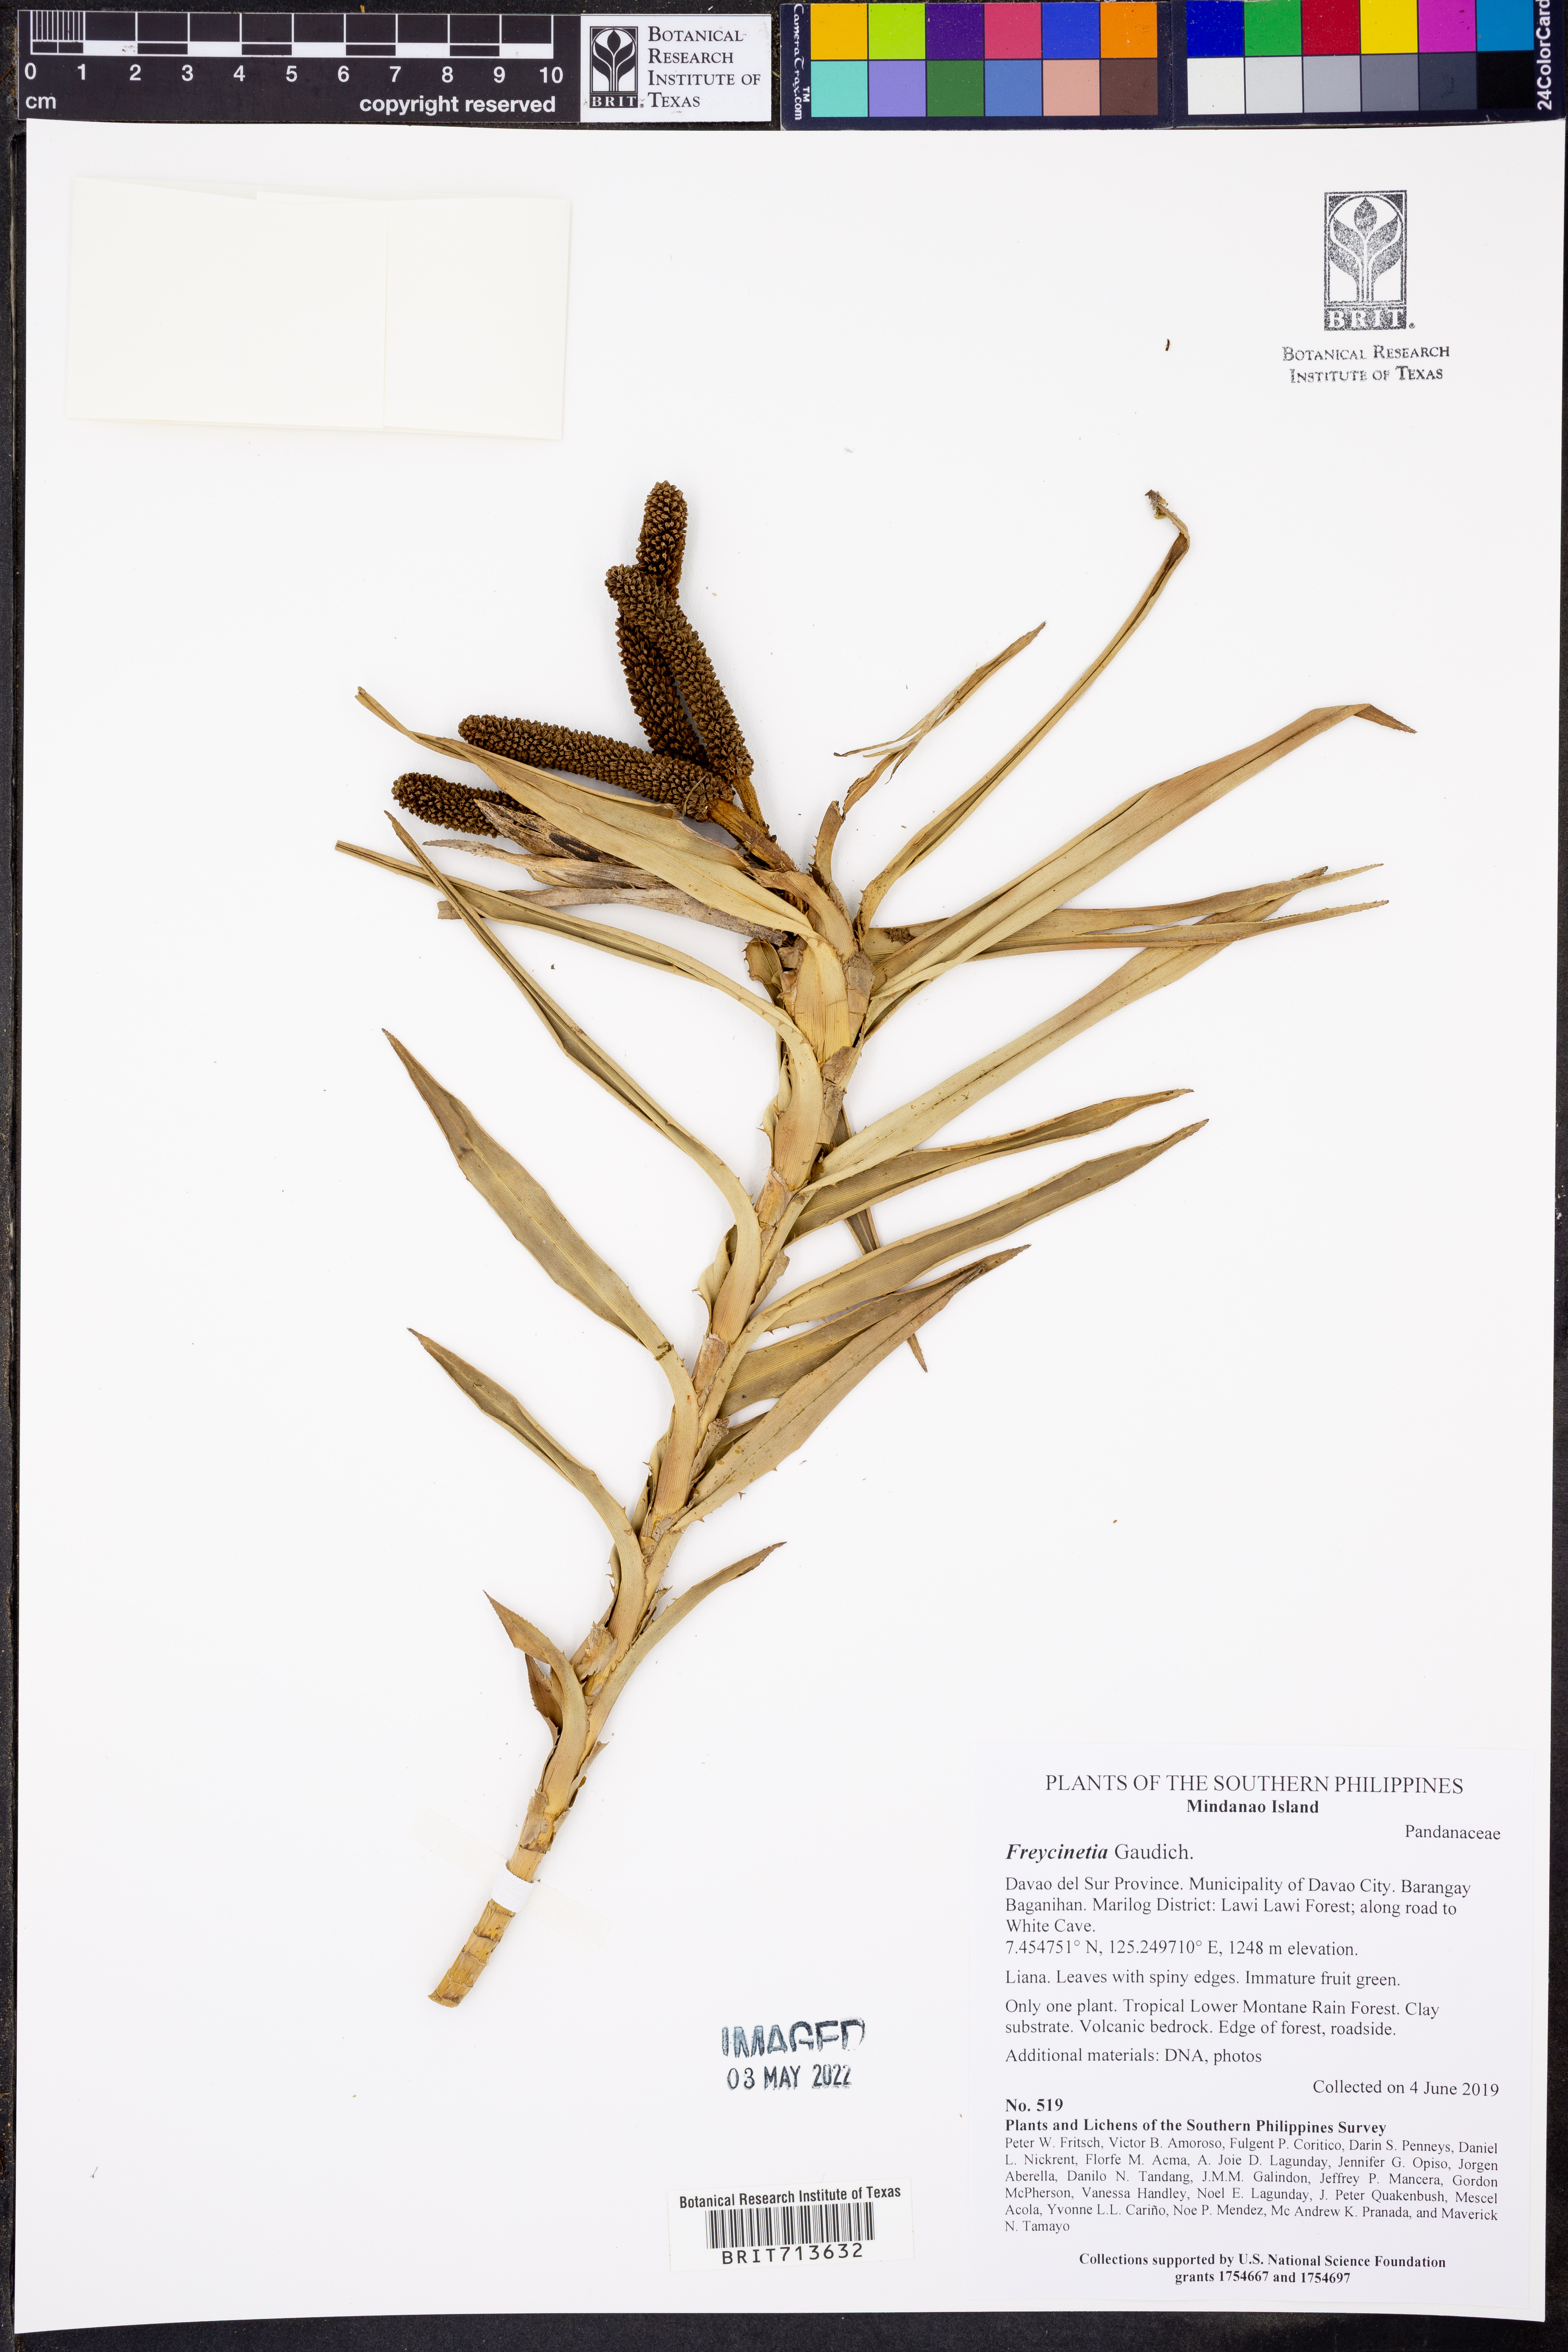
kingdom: Plantae
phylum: Tracheophyta
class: Liliopsida
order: Pandanales
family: Pandanaceae
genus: Freycinetia
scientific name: Freycinetia
